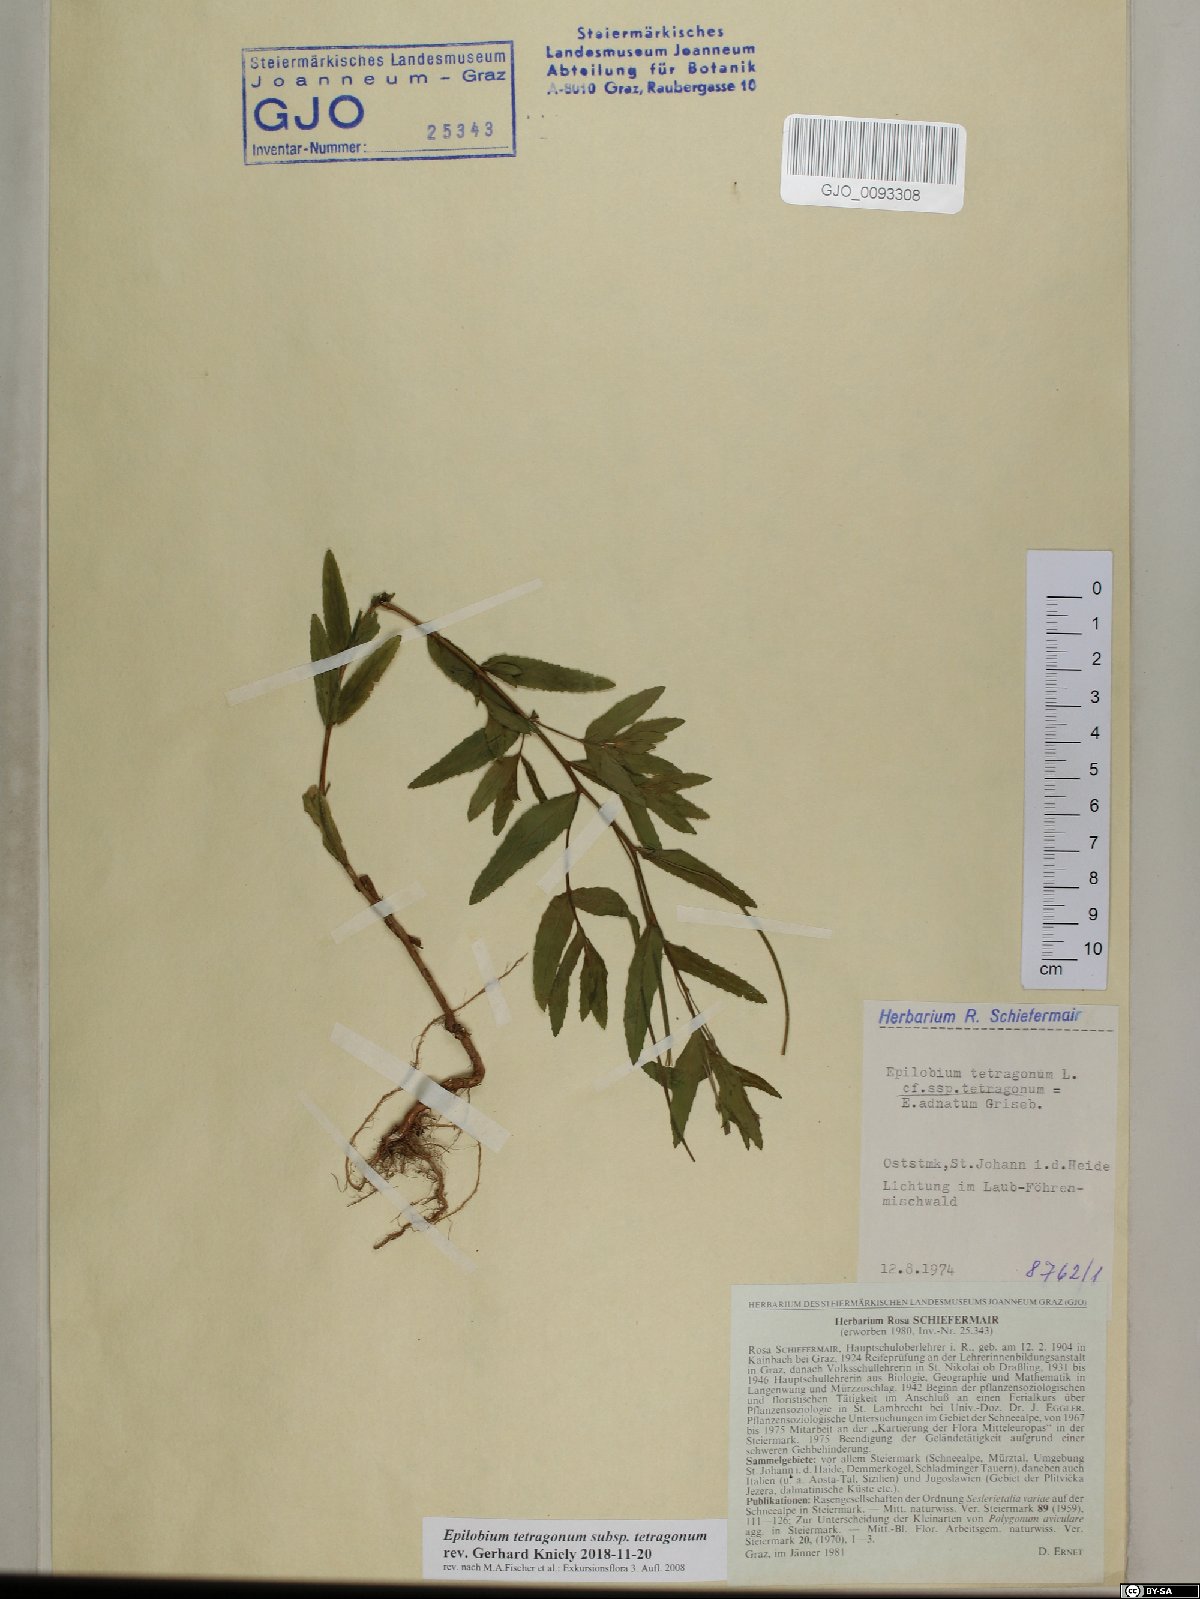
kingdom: Plantae
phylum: Tracheophyta
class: Magnoliopsida
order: Myrtales
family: Onagraceae
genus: Epilobium
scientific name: Epilobium tetragonum
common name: Square-stemmed willowherb
